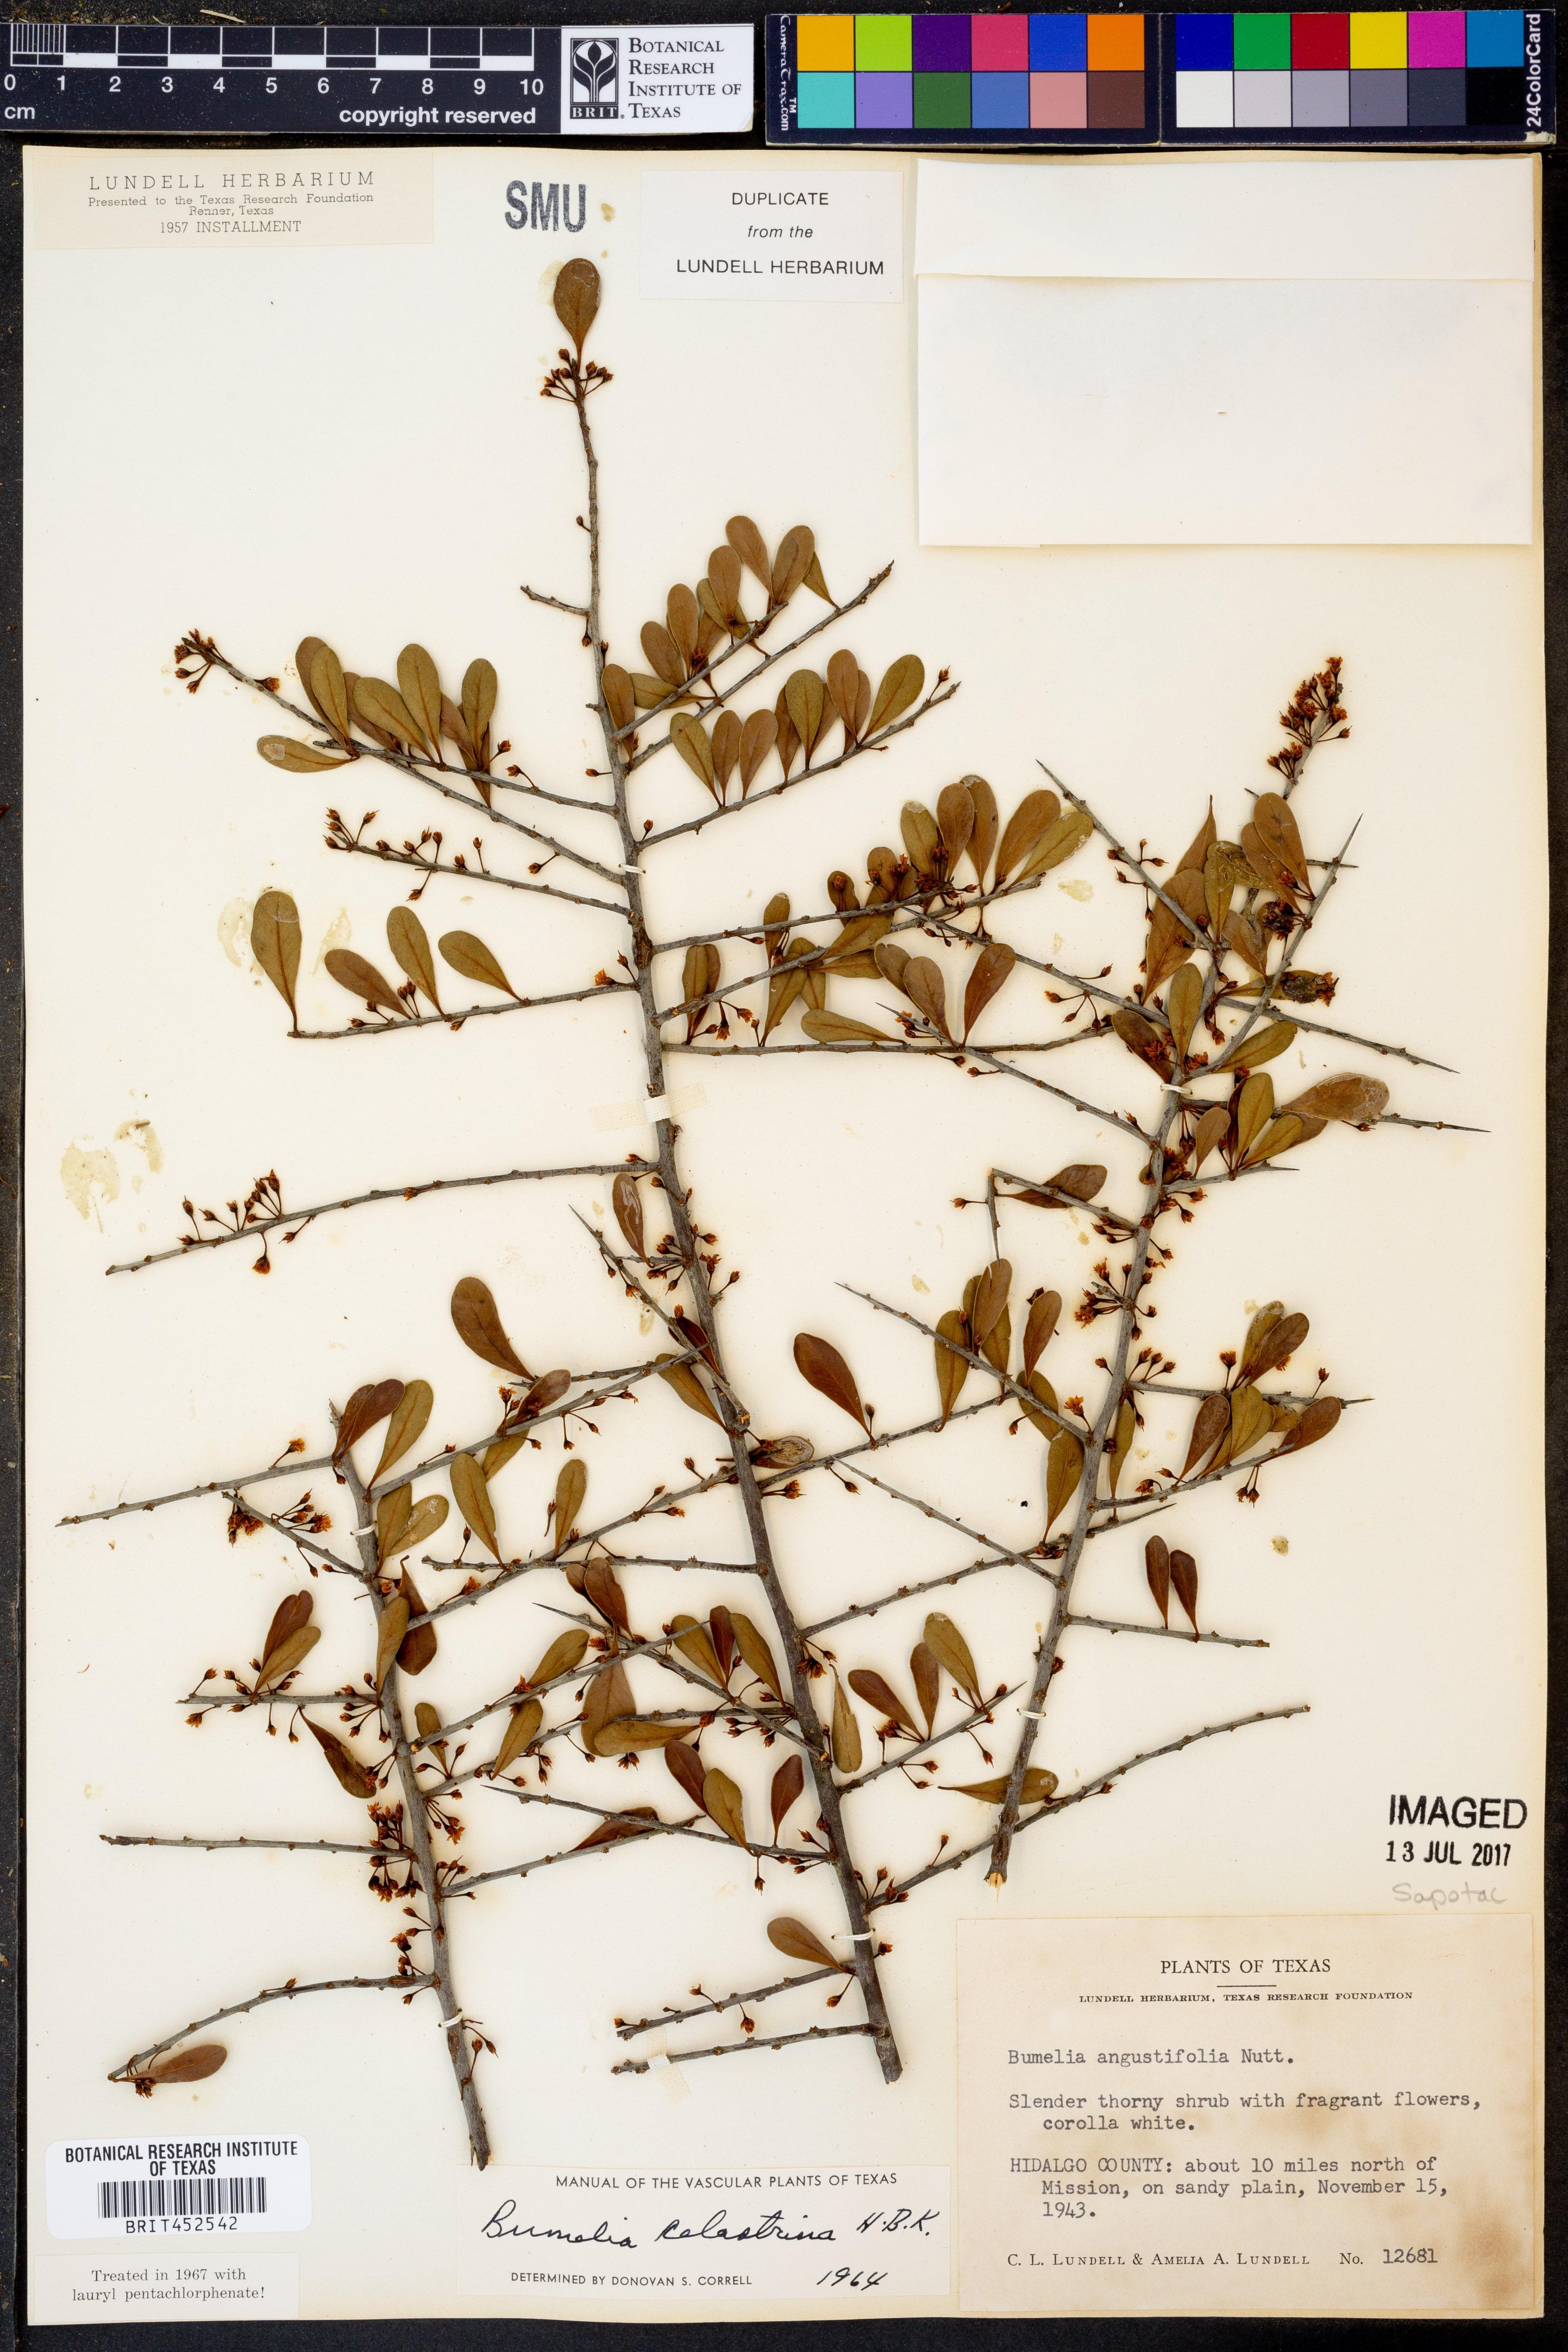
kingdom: Plantae
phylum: Tracheophyta
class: Magnoliopsida
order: Ericales
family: Sapotaceae
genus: Sideroxylon
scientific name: Sideroxylon celastrinum
